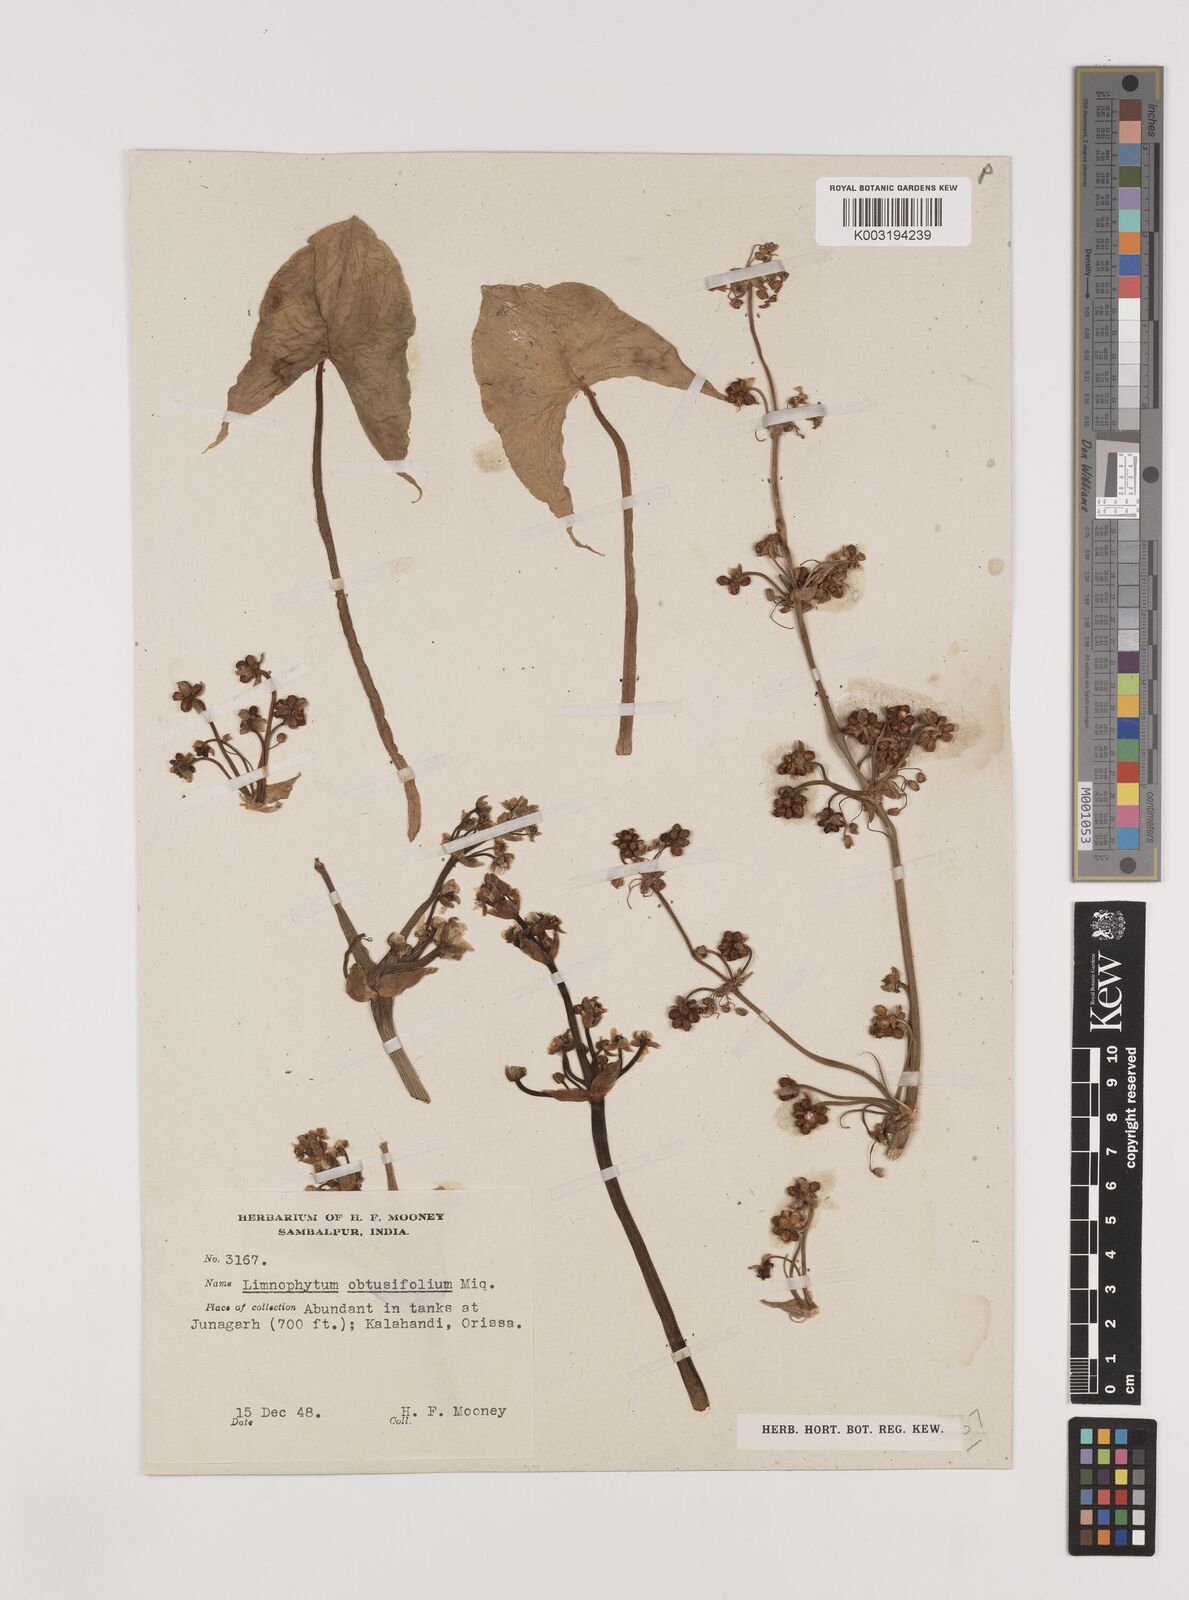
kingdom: Plantae
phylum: Tracheophyta
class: Liliopsida
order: Alismatales
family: Alismataceae
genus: Limnophyton
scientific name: Limnophyton obtusifolium
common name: Arrow head
